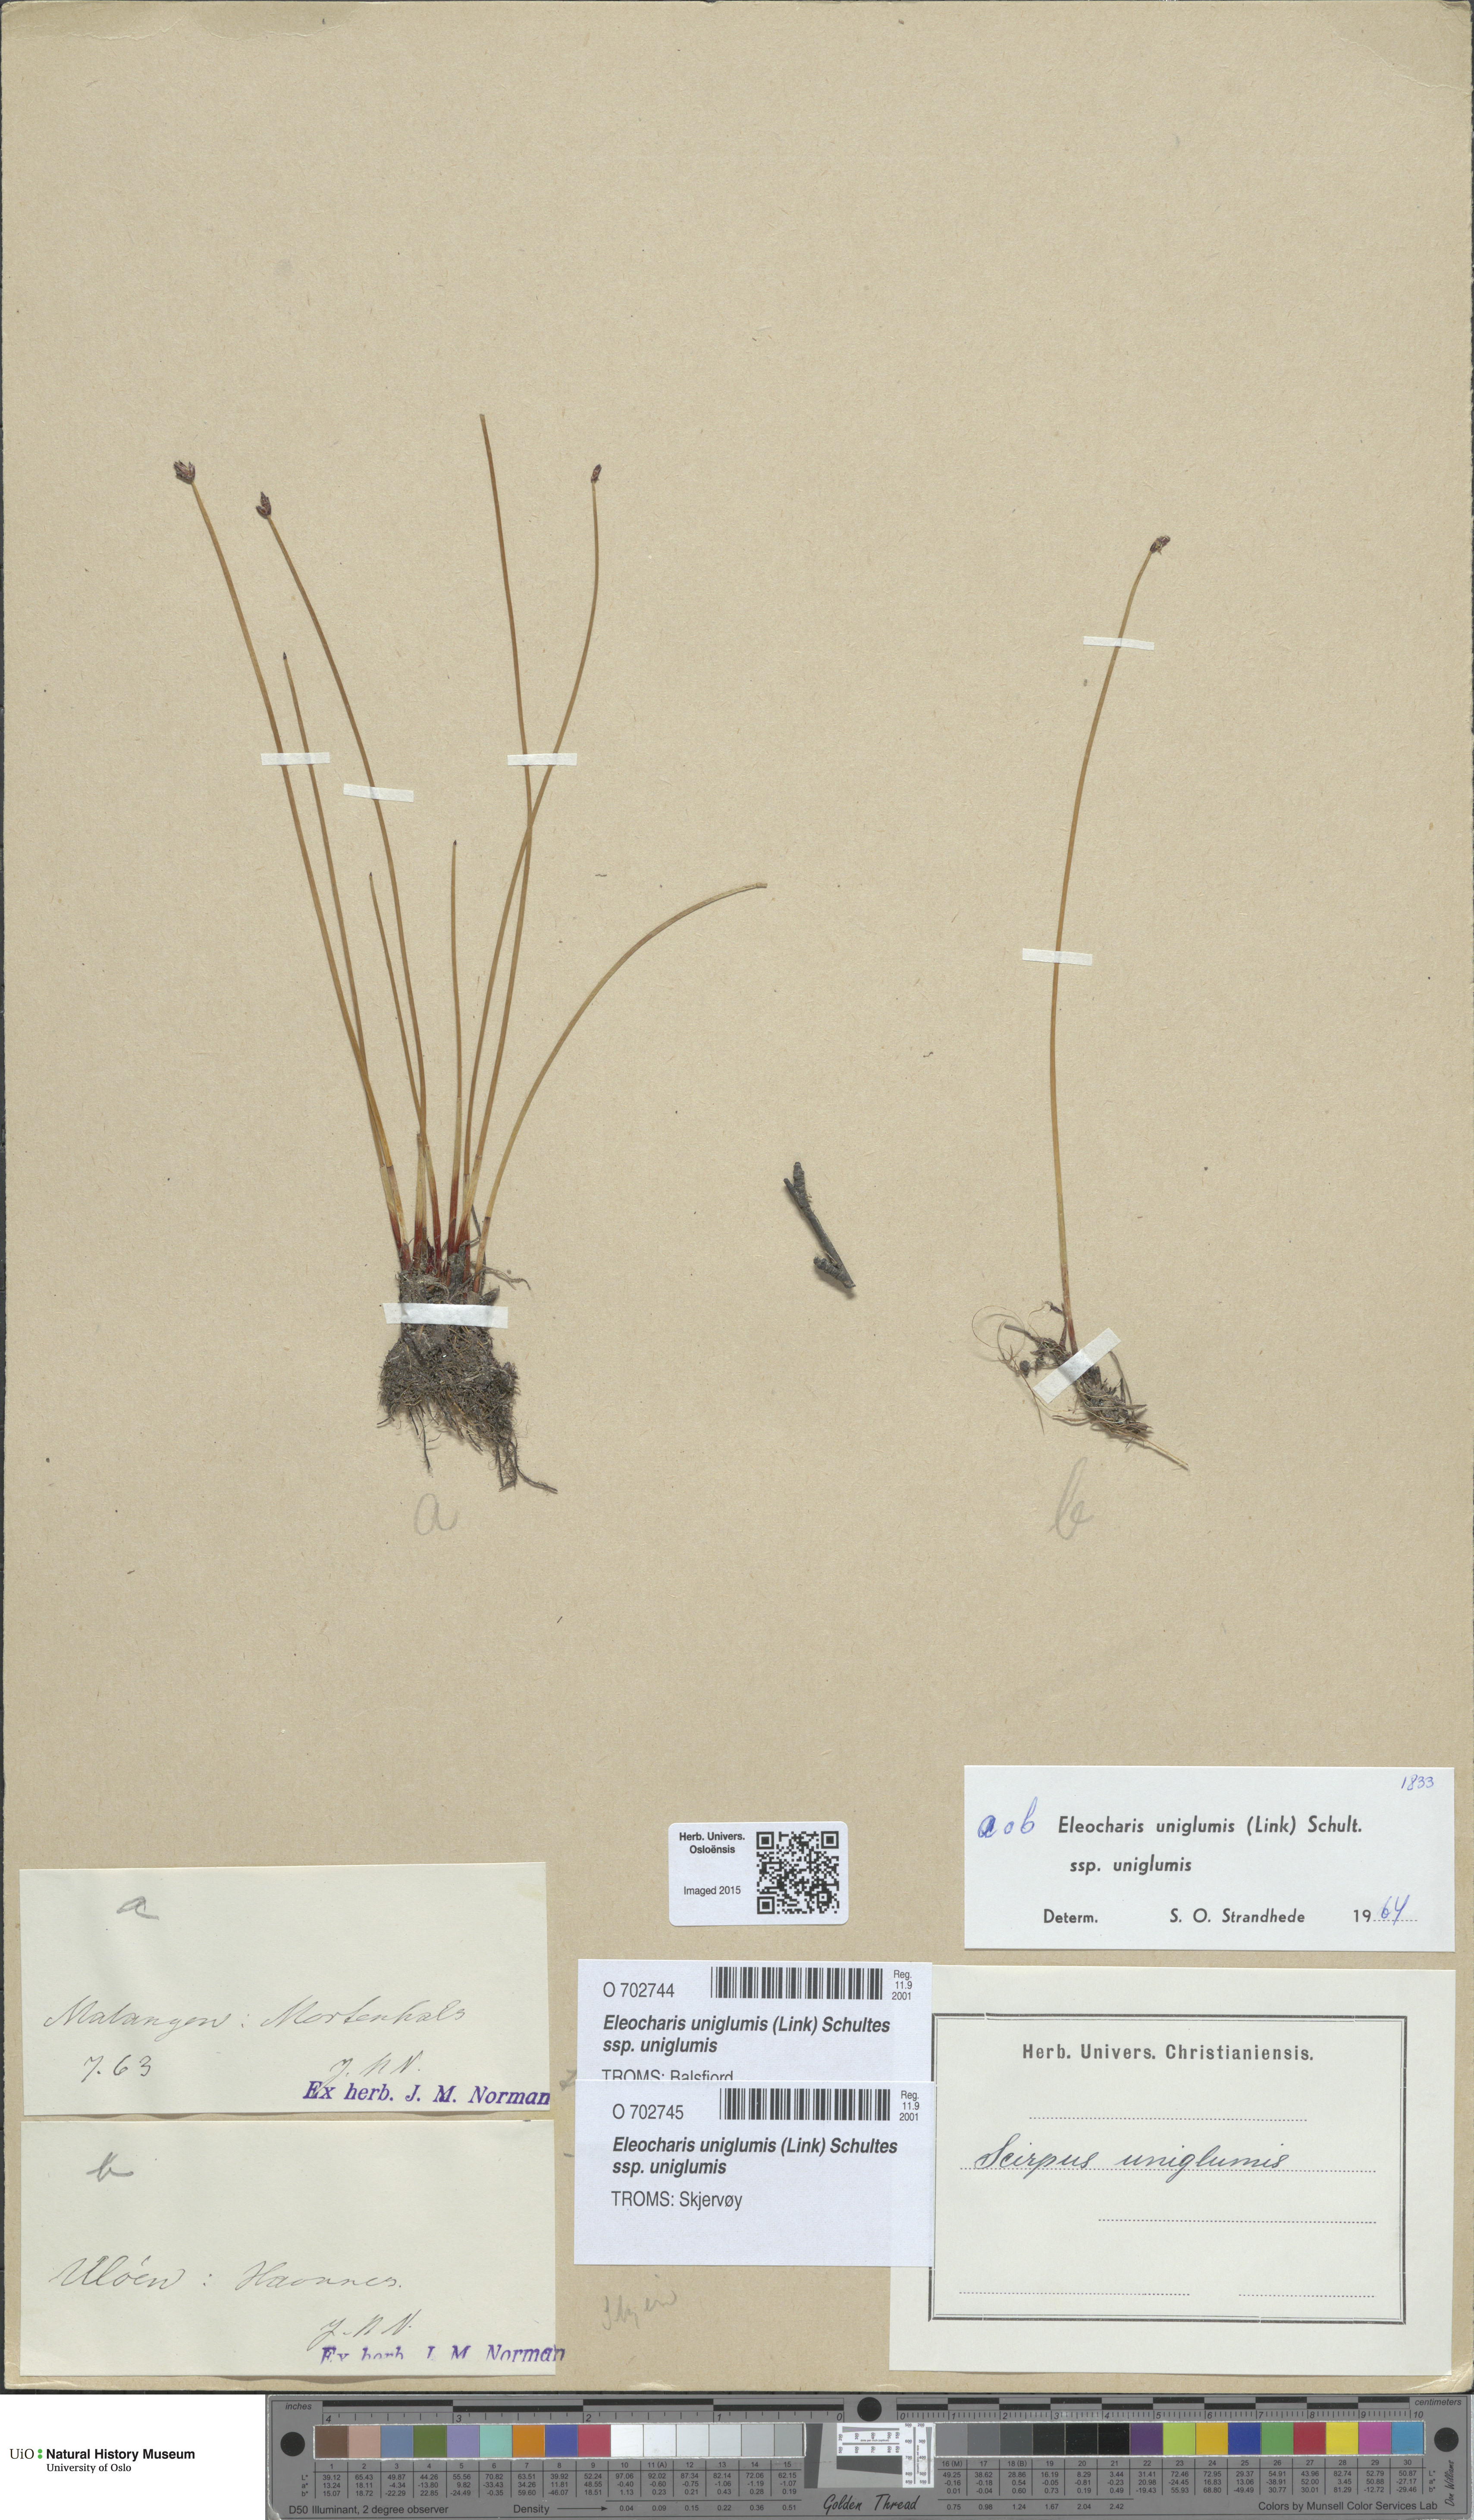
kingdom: Plantae
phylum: Tracheophyta
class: Liliopsida
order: Poales
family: Cyperaceae
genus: Eleocharis
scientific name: Eleocharis uniglumis
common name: Slender spike-rush
